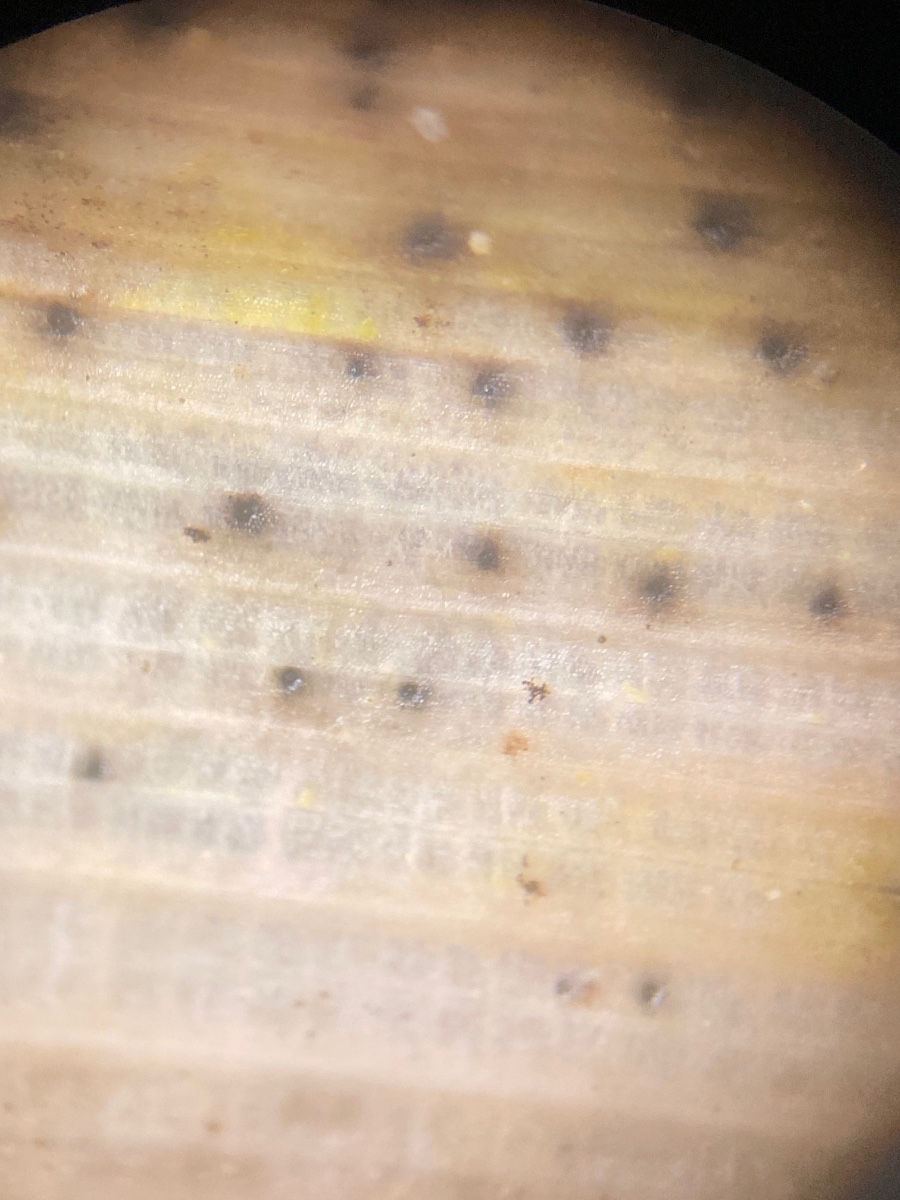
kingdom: Fungi
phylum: Ascomycota
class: Dothideomycetes
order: Pleosporales
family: Phaeosphaeriaceae
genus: Stagonospora
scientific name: Stagonospora typhoidearum
